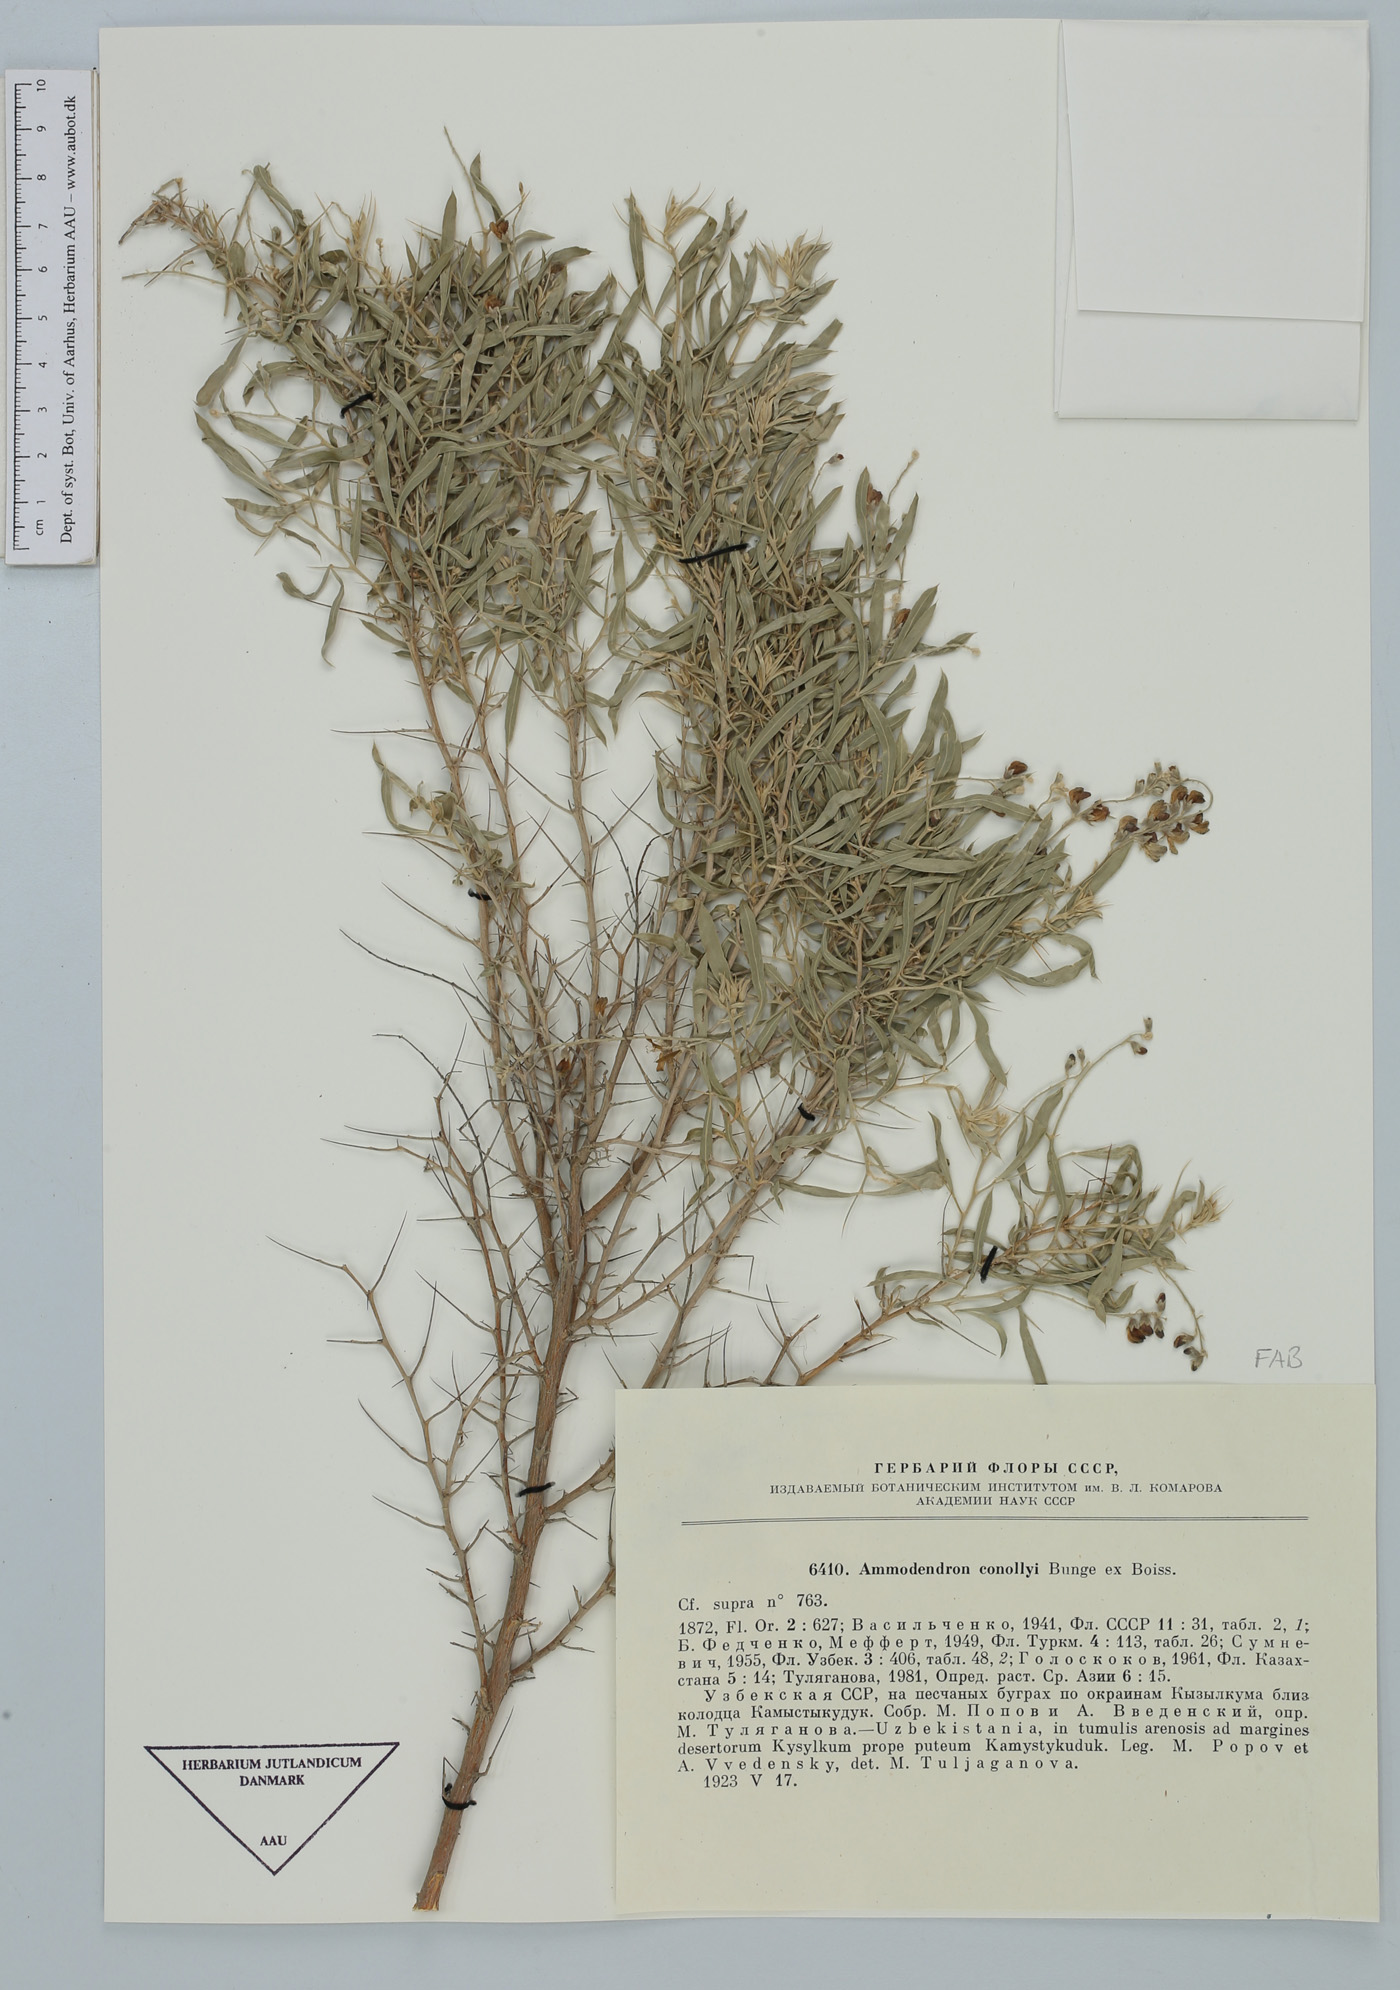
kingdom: Plantae
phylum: Tracheophyta
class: Magnoliopsida
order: Fabales
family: Fabaceae
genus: Ammodendron
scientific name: Ammodendron conollyi
